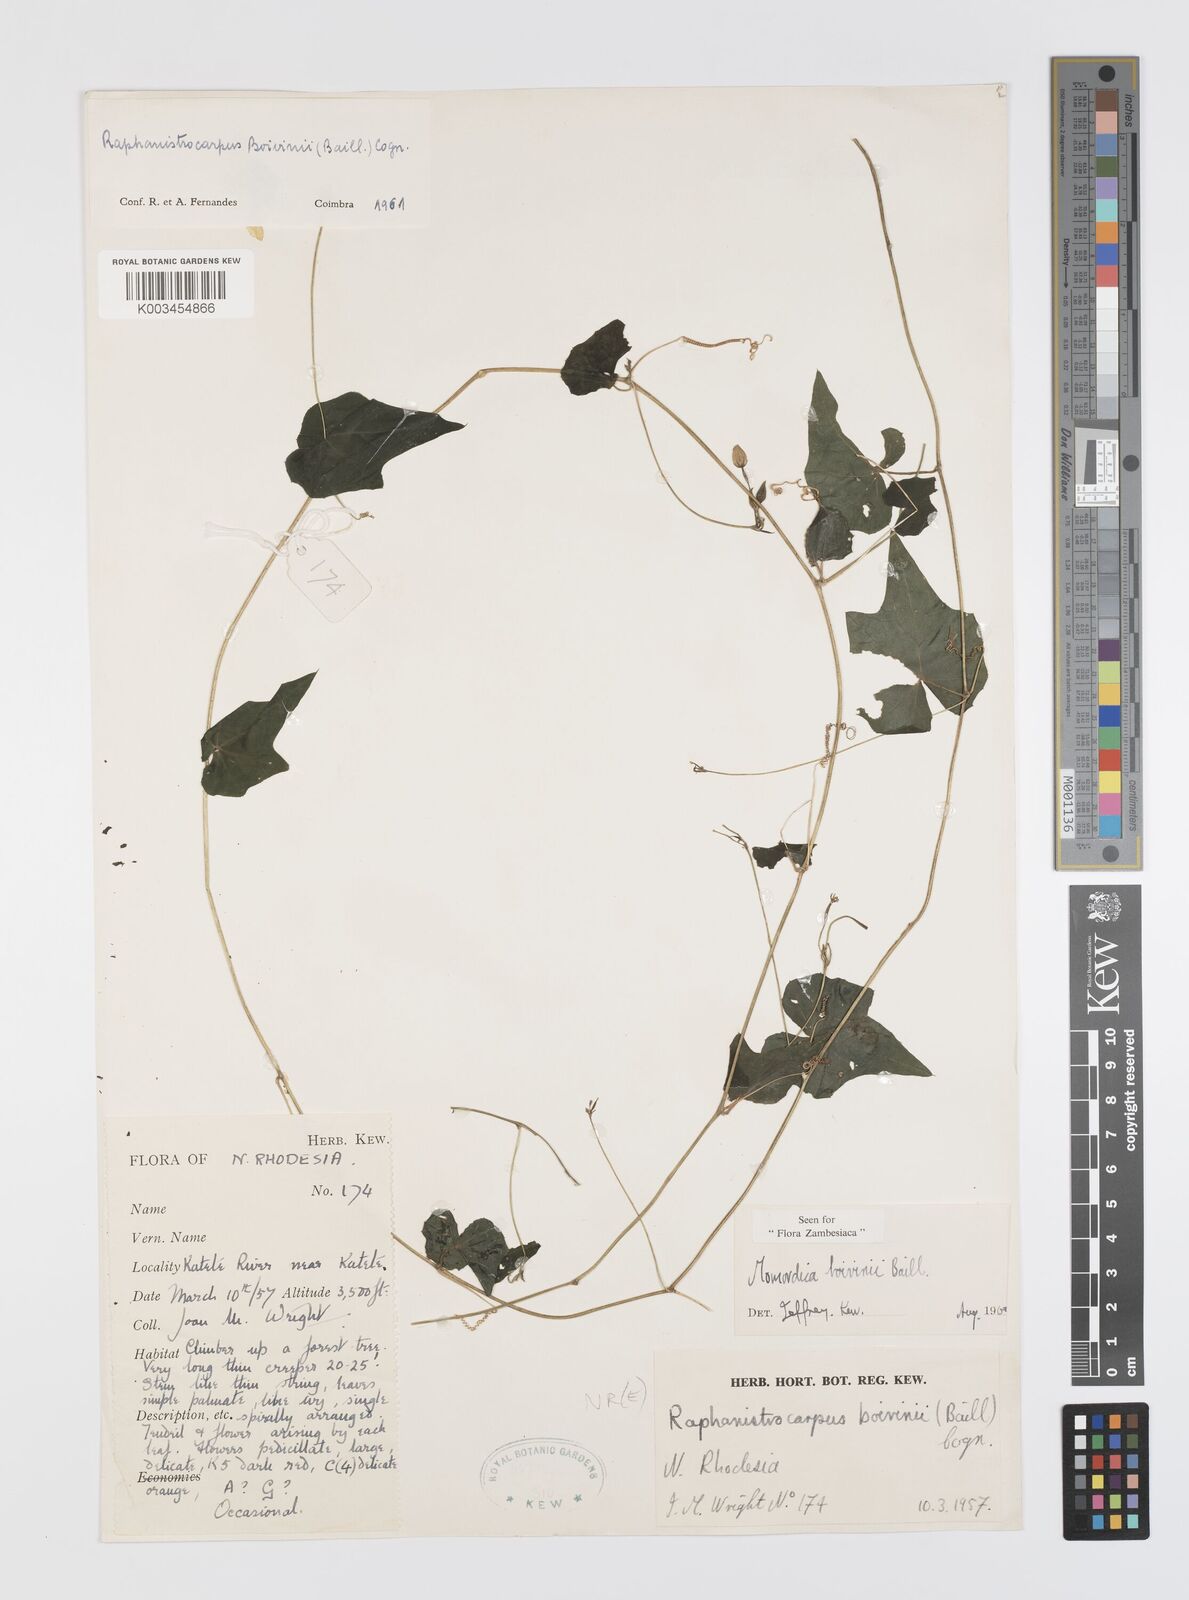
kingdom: Plantae
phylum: Tracheophyta
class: Magnoliopsida
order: Cucurbitales
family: Cucurbitaceae
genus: Momordica
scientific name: Momordica boivinii
